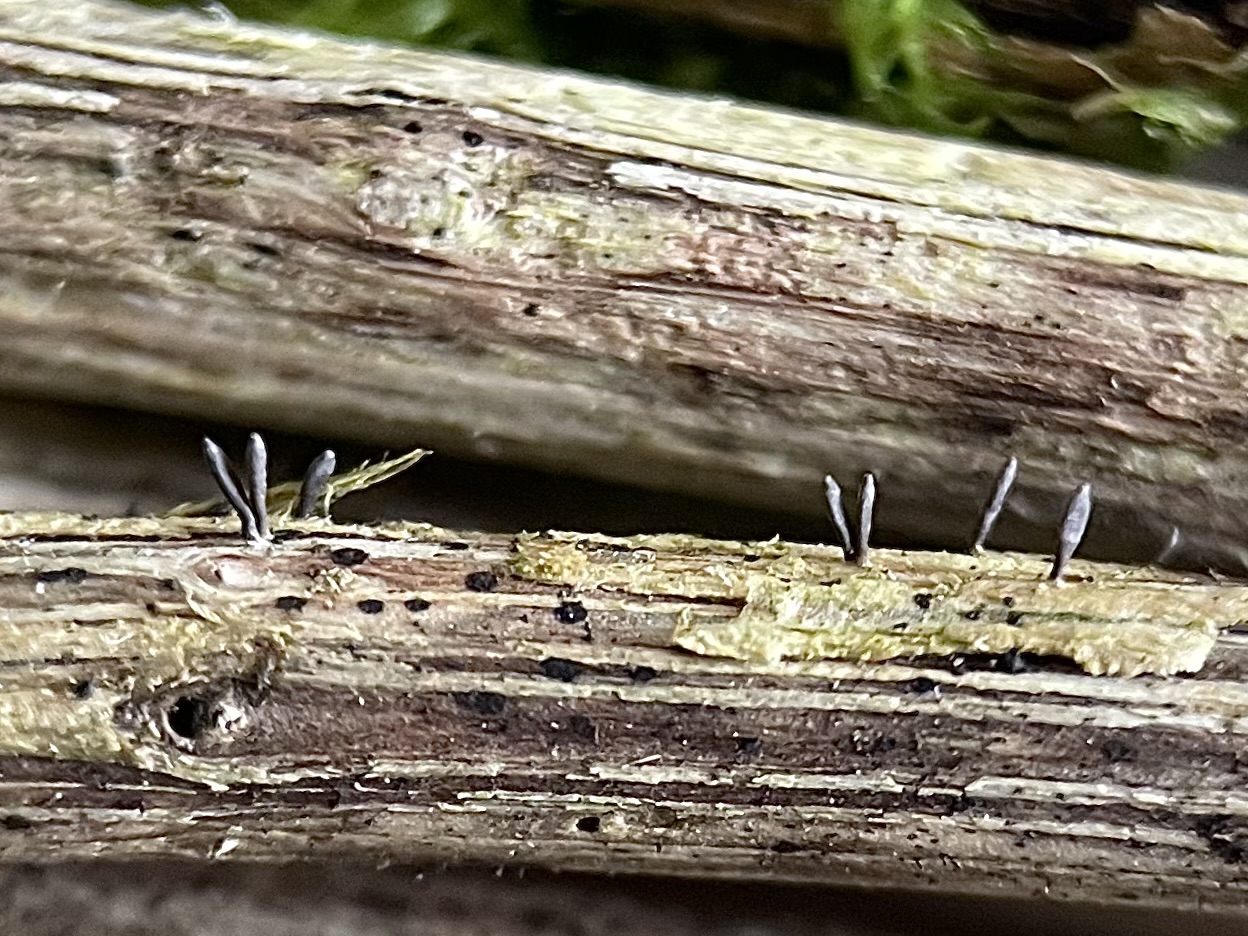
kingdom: Fungi
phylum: Ascomycota
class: Dothideomycetes
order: Acrospermales
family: Acrospermaceae
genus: Acrospermum
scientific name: Acrospermum compressum
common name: nælde-stængeltunge
